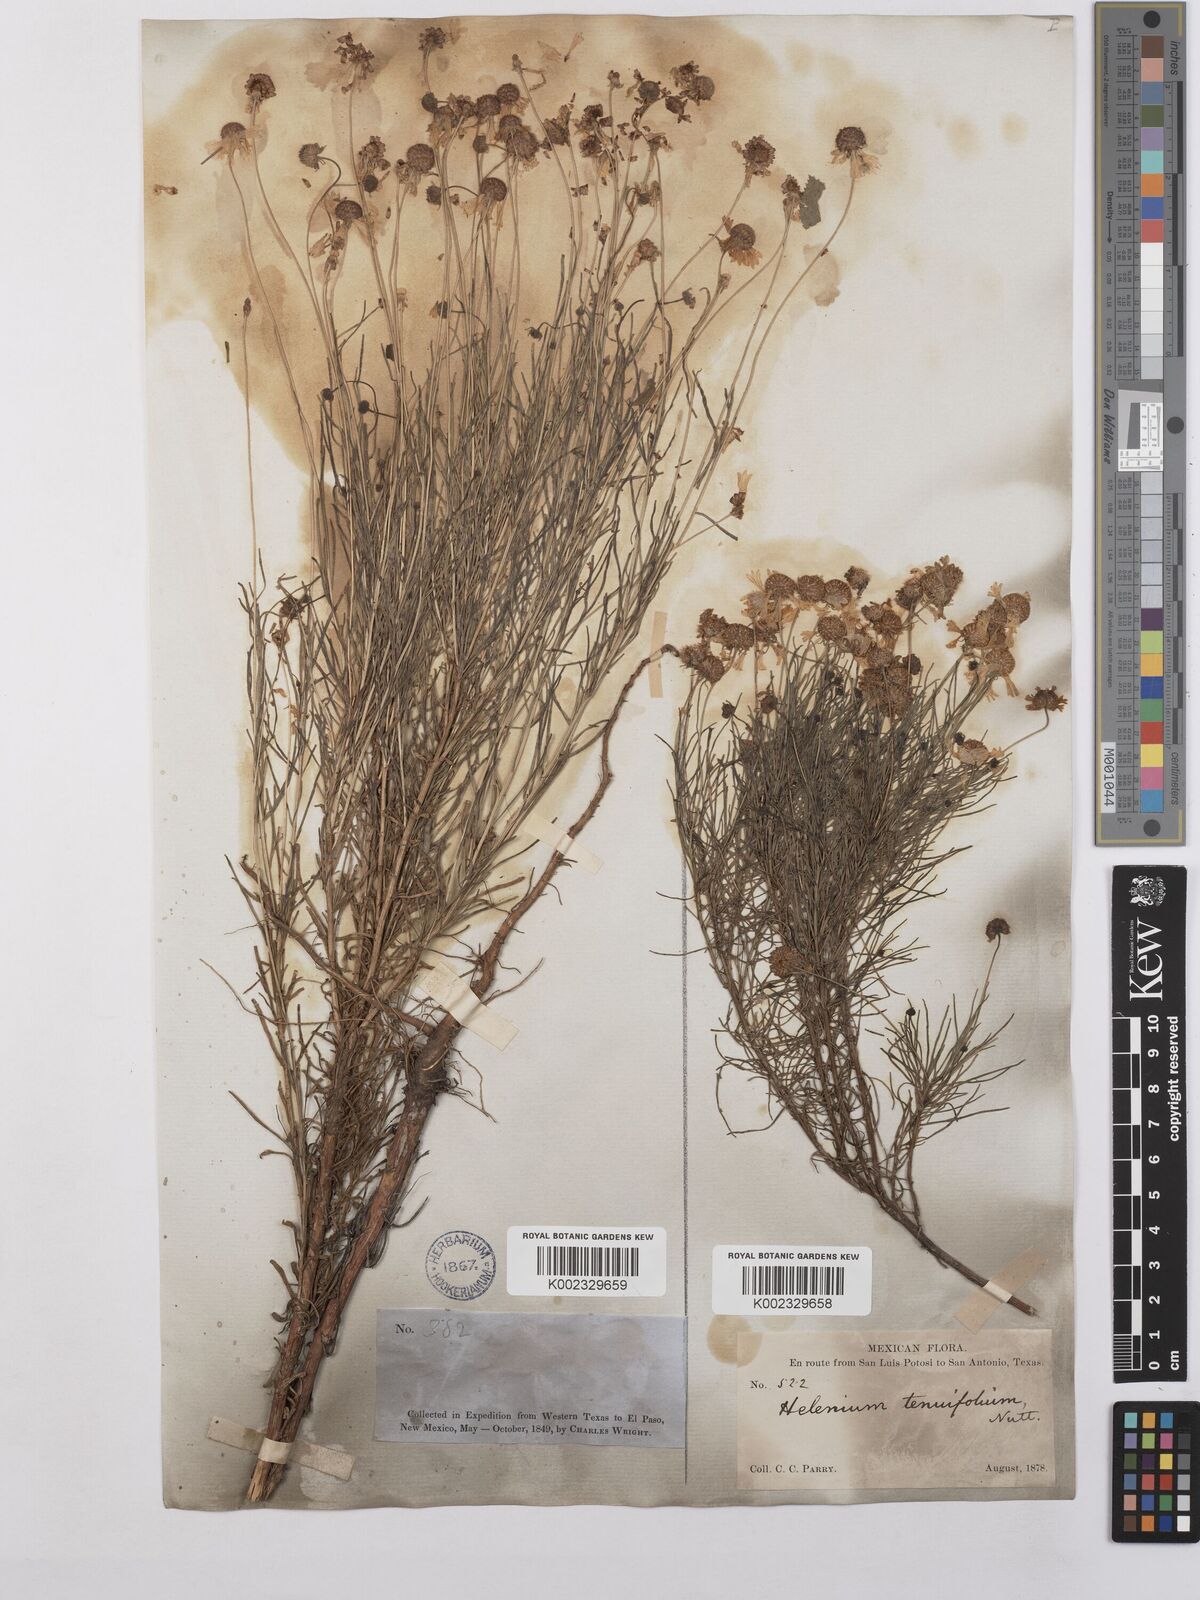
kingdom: Plantae
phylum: Tracheophyta
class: Magnoliopsida
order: Asterales
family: Asteraceae
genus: Helenium
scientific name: Helenium amarum
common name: Bitter sneezeweed
